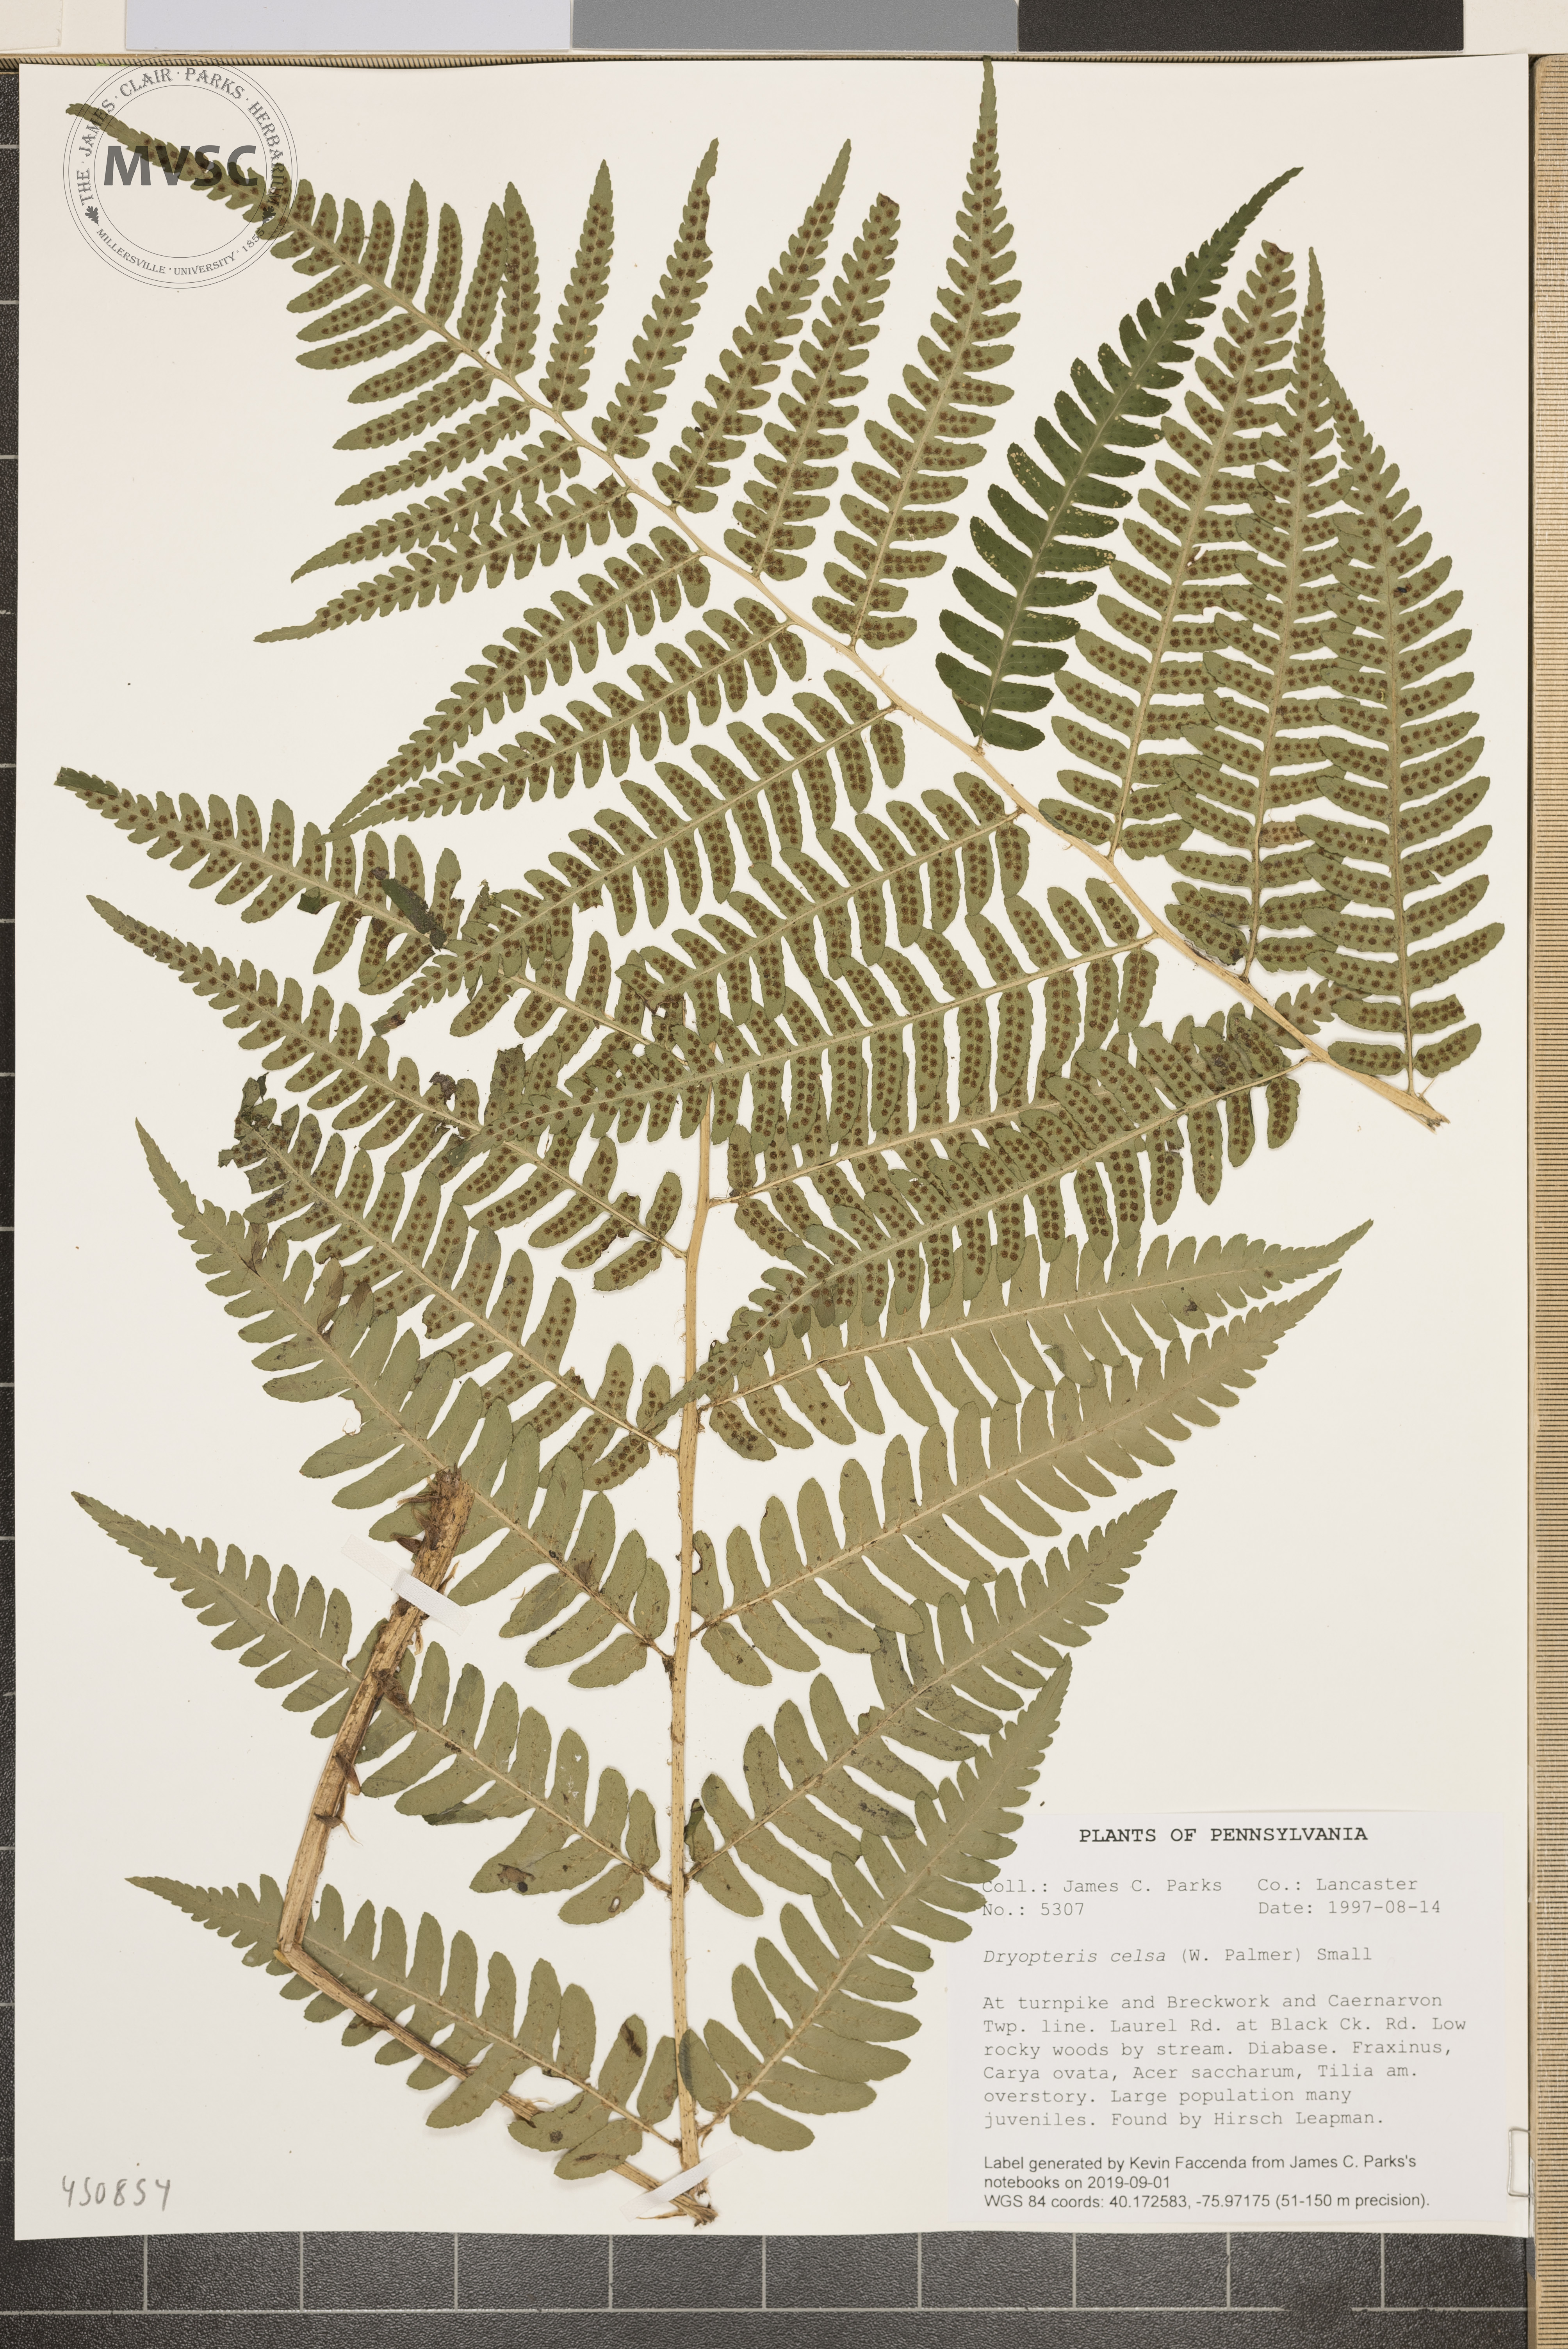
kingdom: Plantae
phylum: Tracheophyta
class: Polypodiopsida
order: Polypodiales
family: Dryopteridaceae
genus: Dryopteris
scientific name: Dryopteris celsa
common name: Log fern
